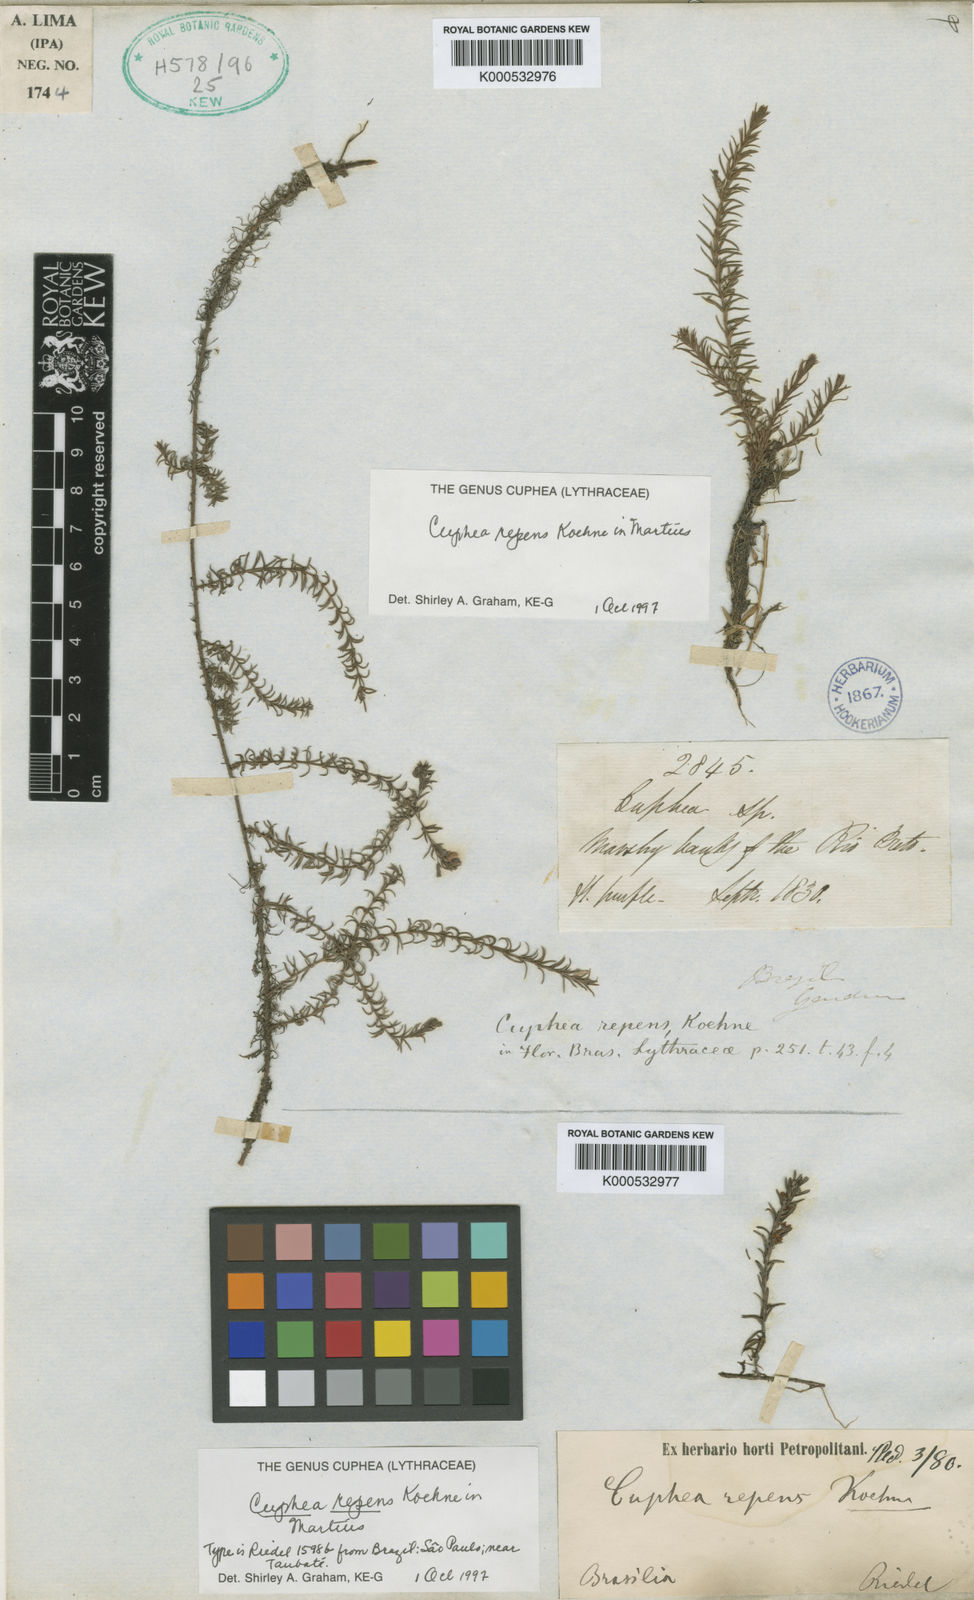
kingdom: Plantae
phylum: Tracheophyta
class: Magnoliopsida
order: Myrtales
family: Lythraceae
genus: Cuphea
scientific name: Cuphea repens
